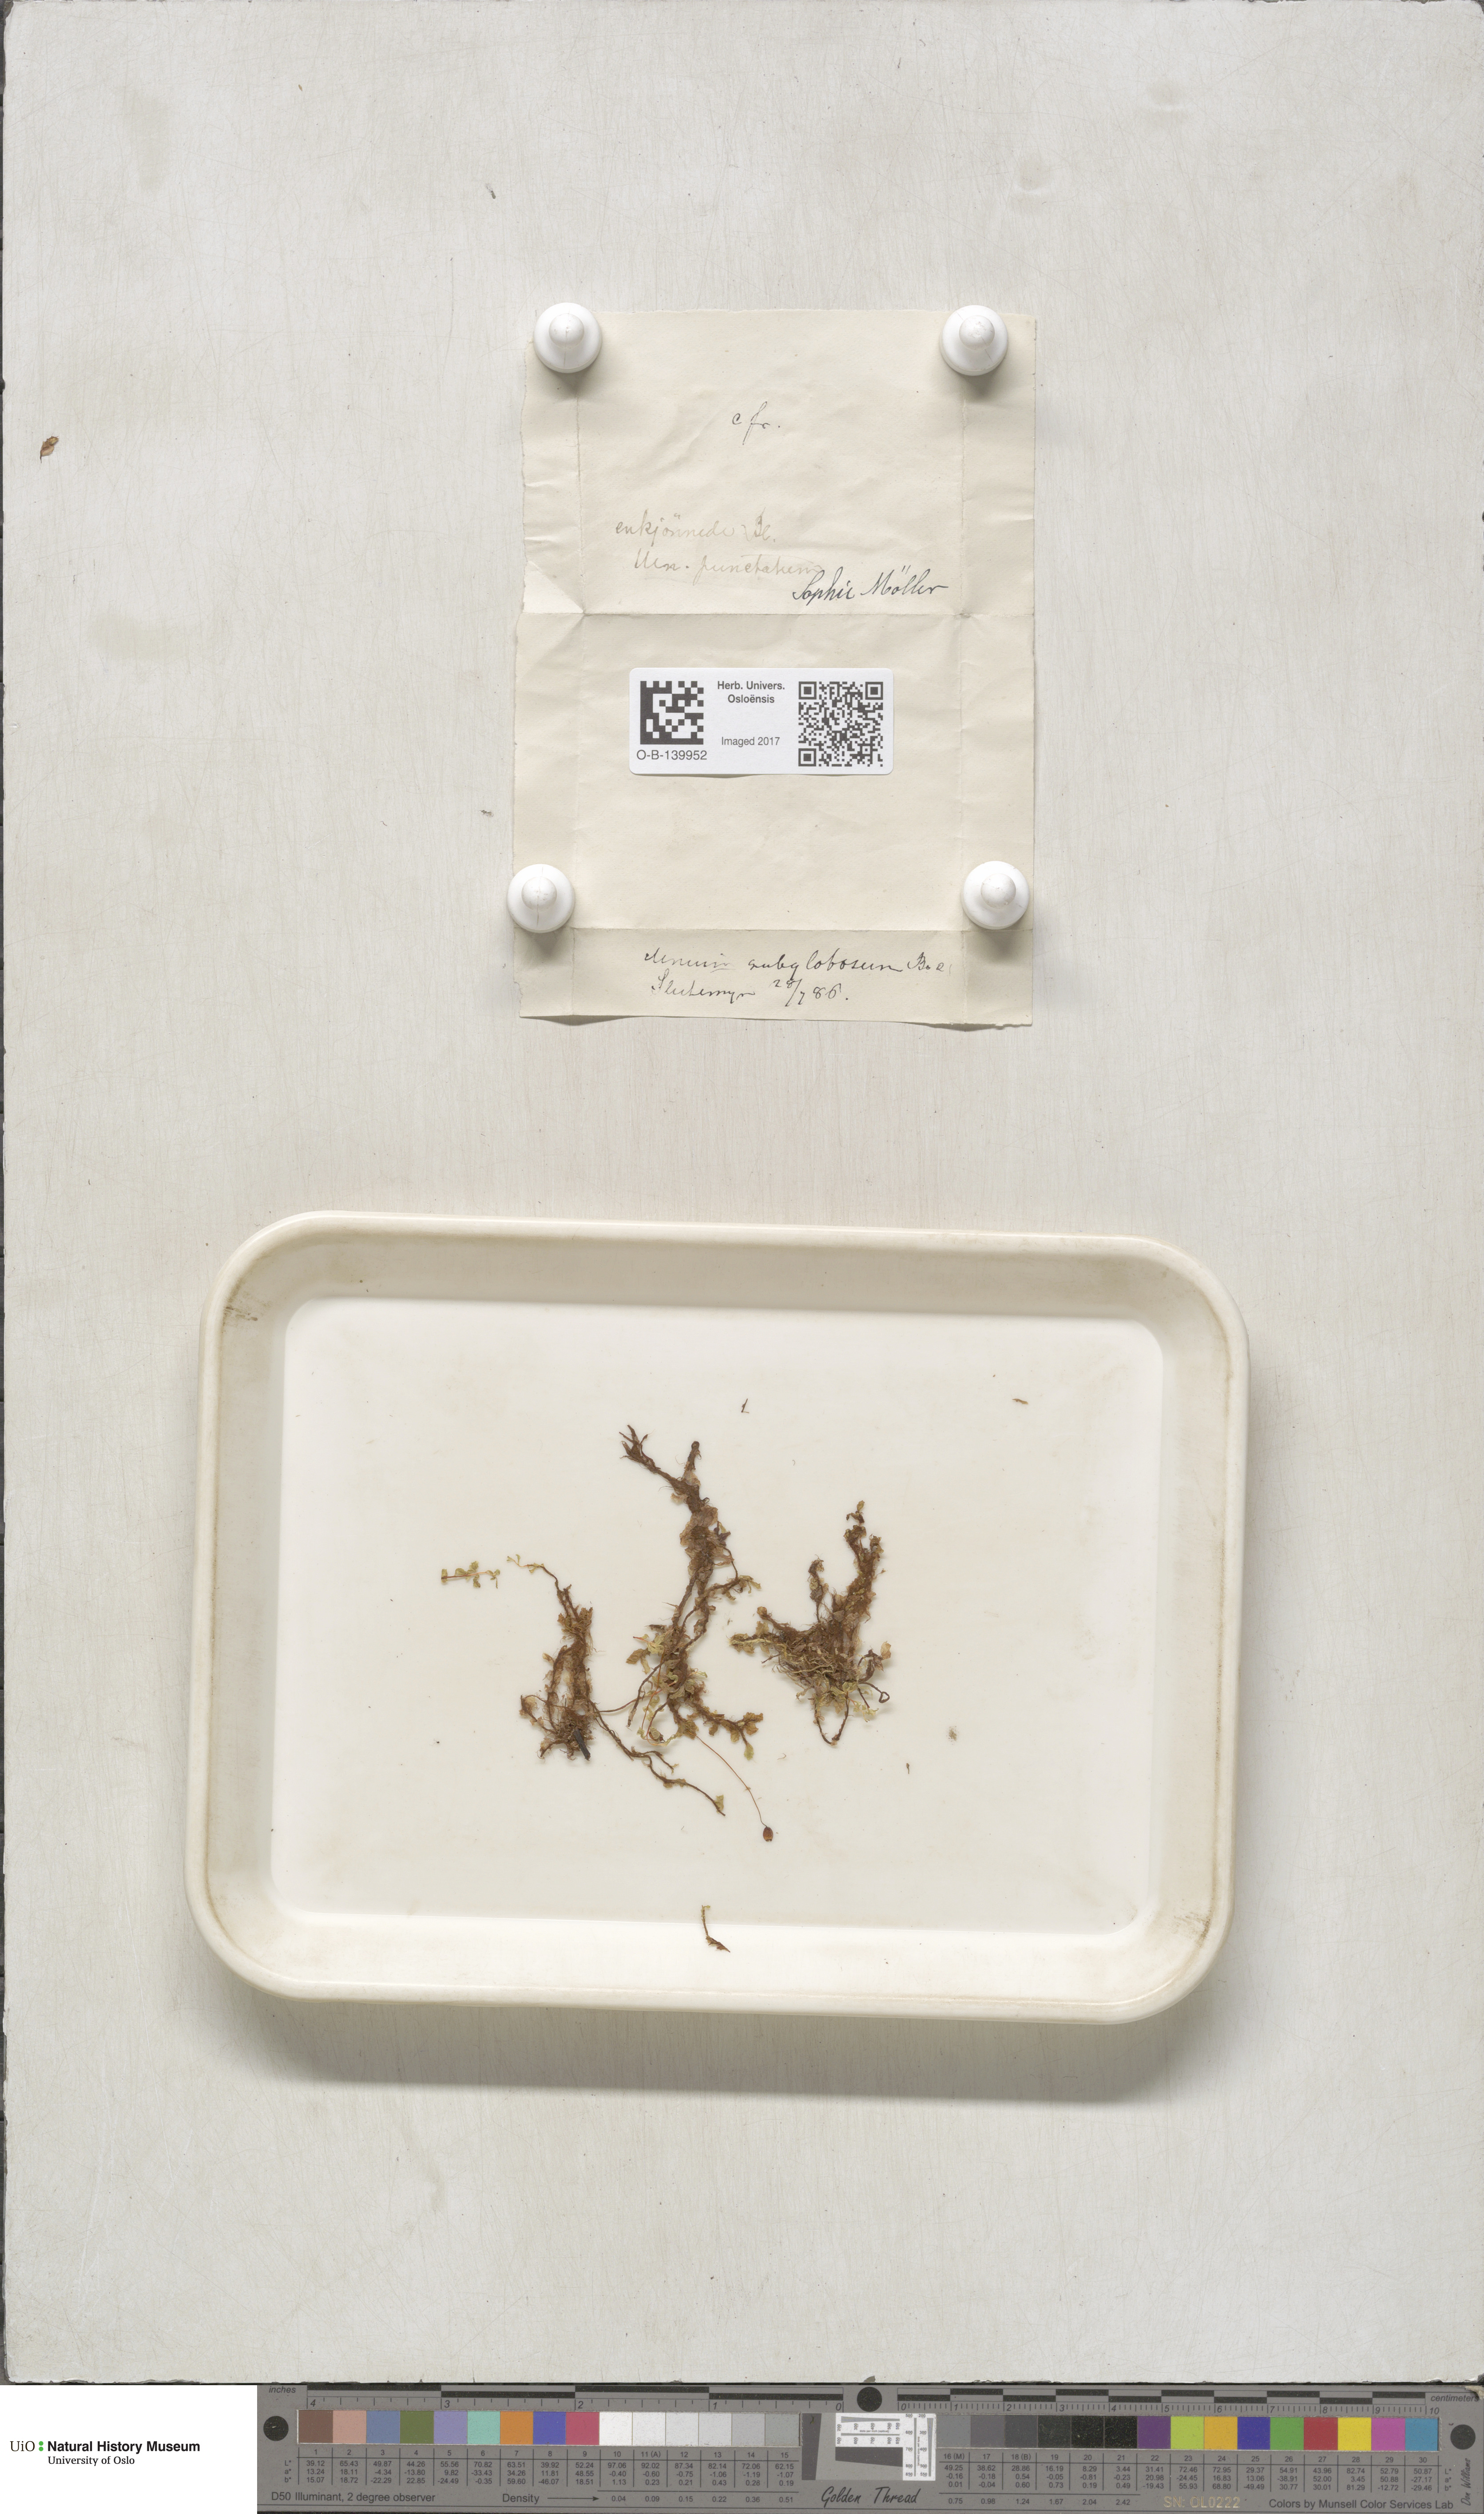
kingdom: Plantae
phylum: Bryophyta
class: Bryopsida
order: Bryales
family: Mniaceae
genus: Rhizomnium
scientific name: Rhizomnium pseudopunctatum
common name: Felted leafy moss
